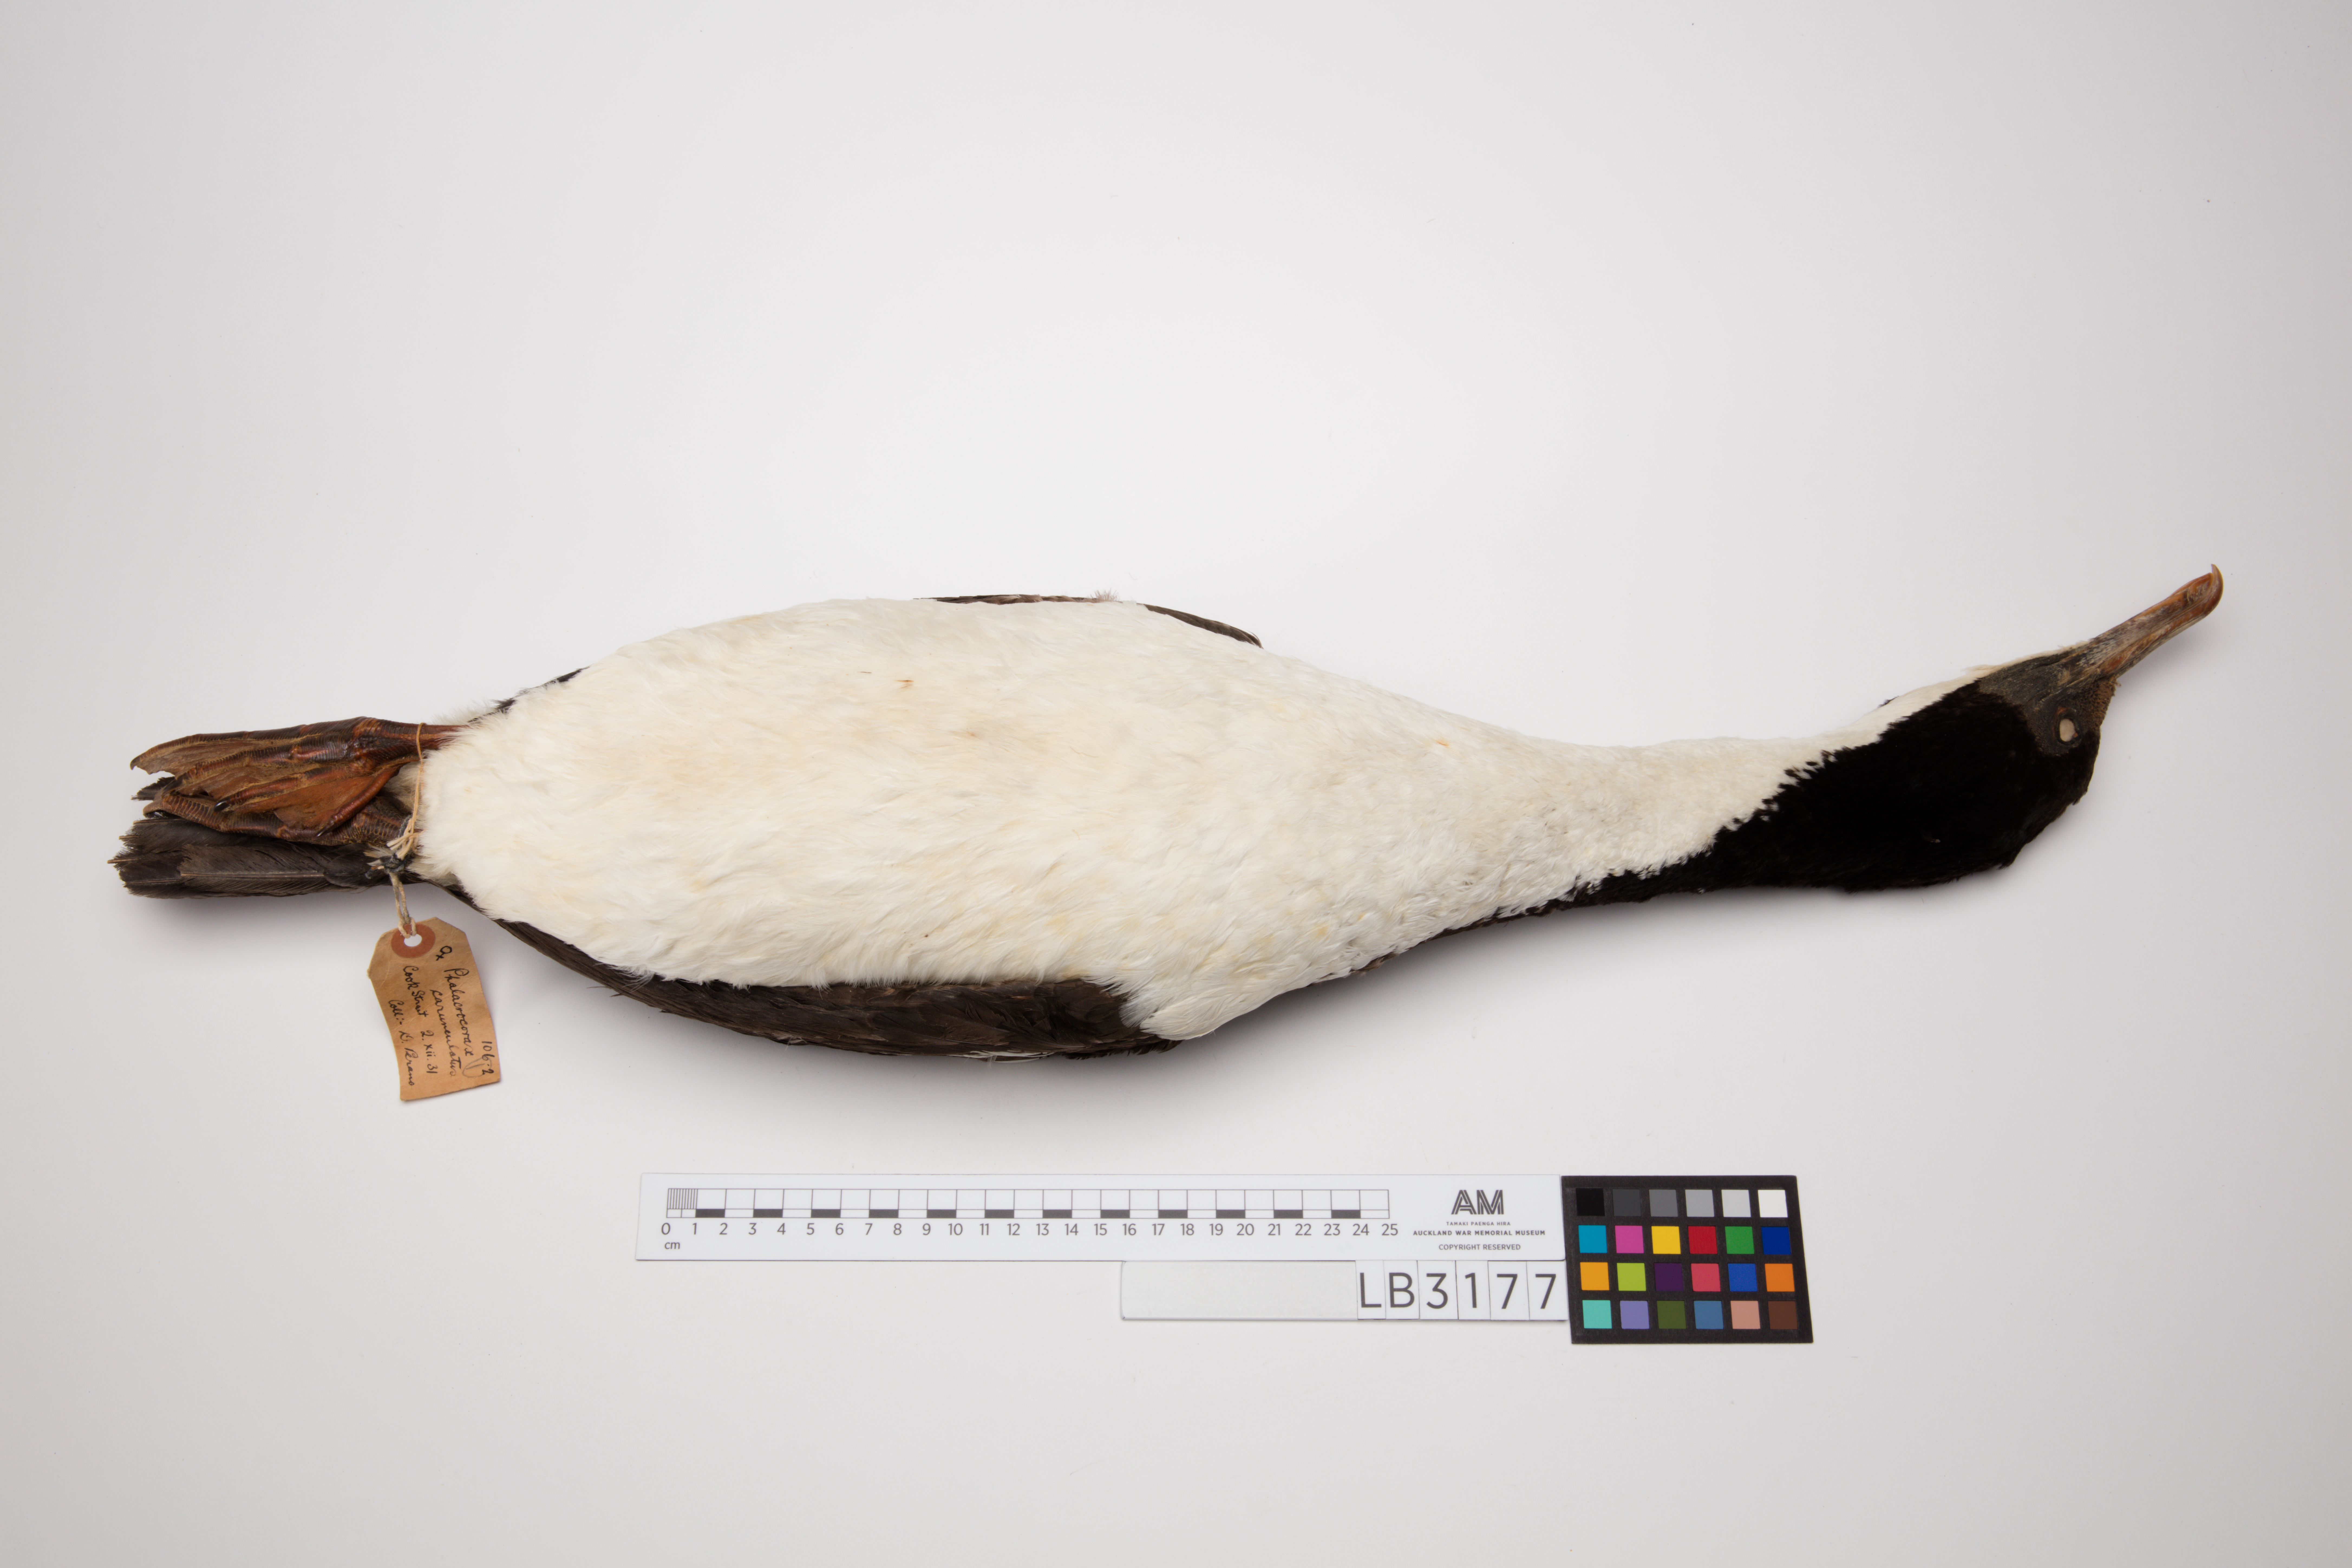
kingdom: Animalia
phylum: Chordata
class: Aves
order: Suliformes
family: Phalacrocoracidae
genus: Leucocarbo
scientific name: Leucocarbo carunculatus
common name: Rough-faced shag
